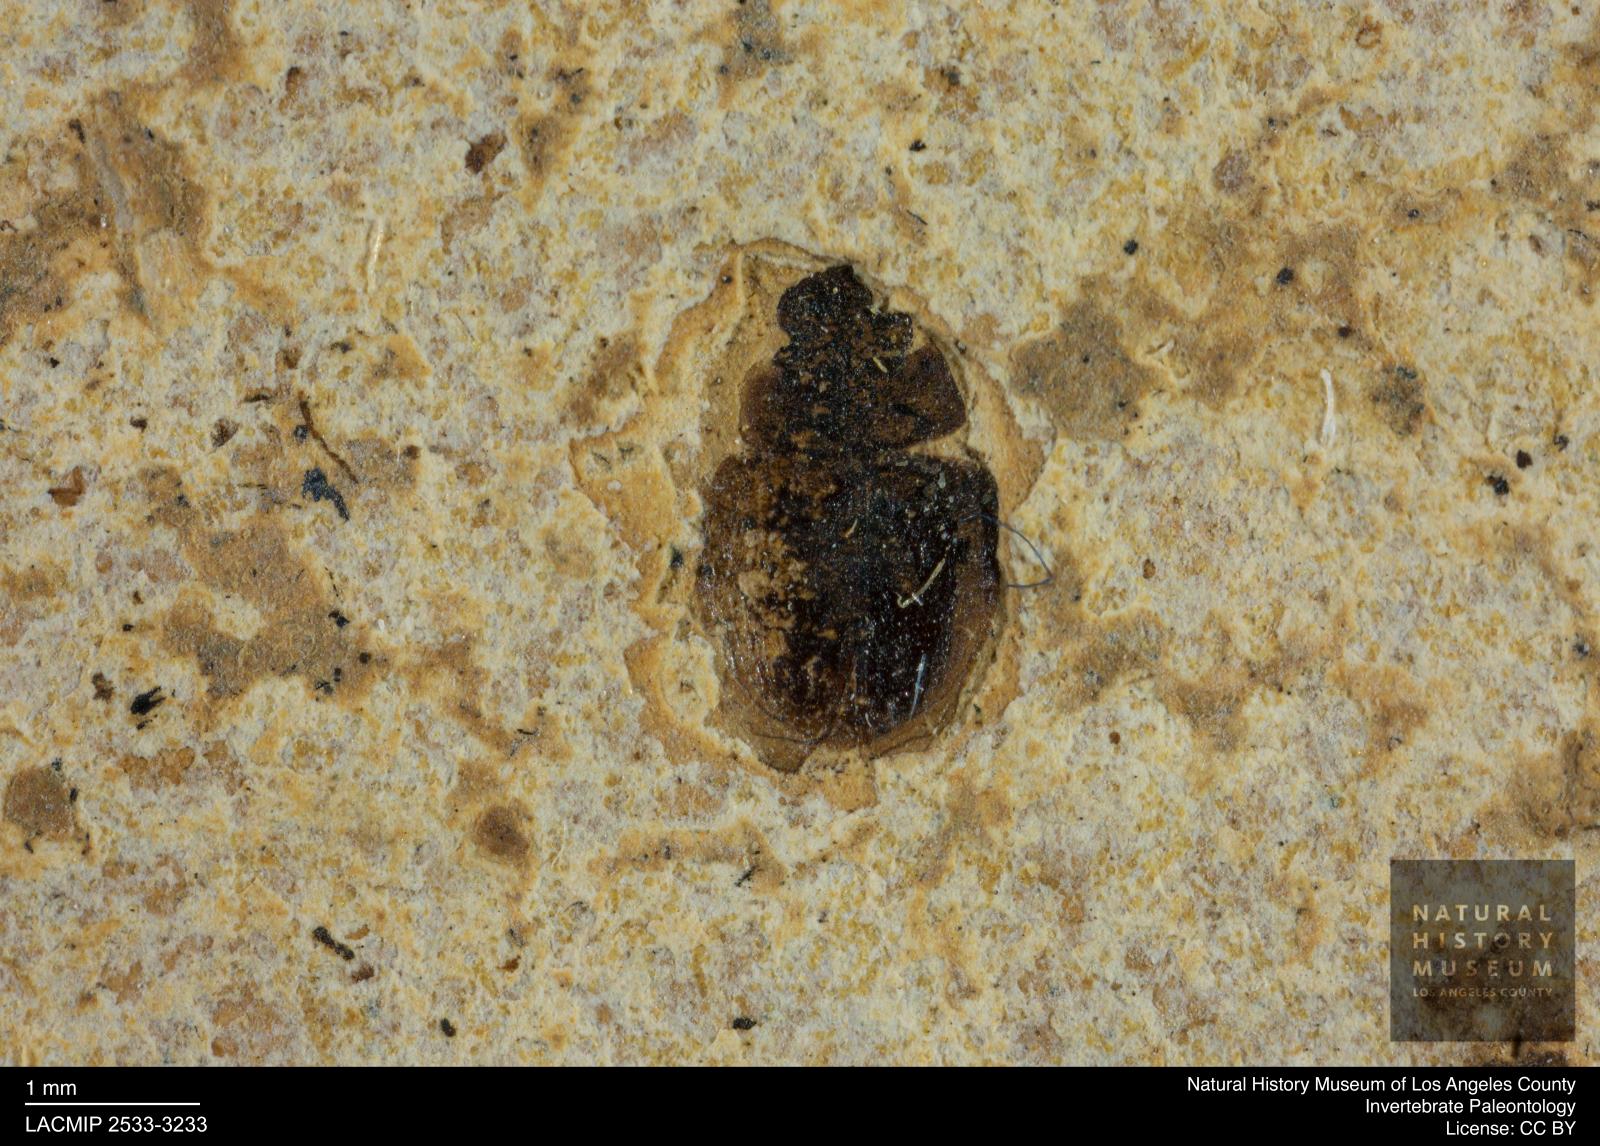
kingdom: Animalia
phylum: Arthropoda
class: Insecta
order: Coleoptera
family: Hydrophilidae
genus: Paracymus
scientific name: Paracymus excitatus
